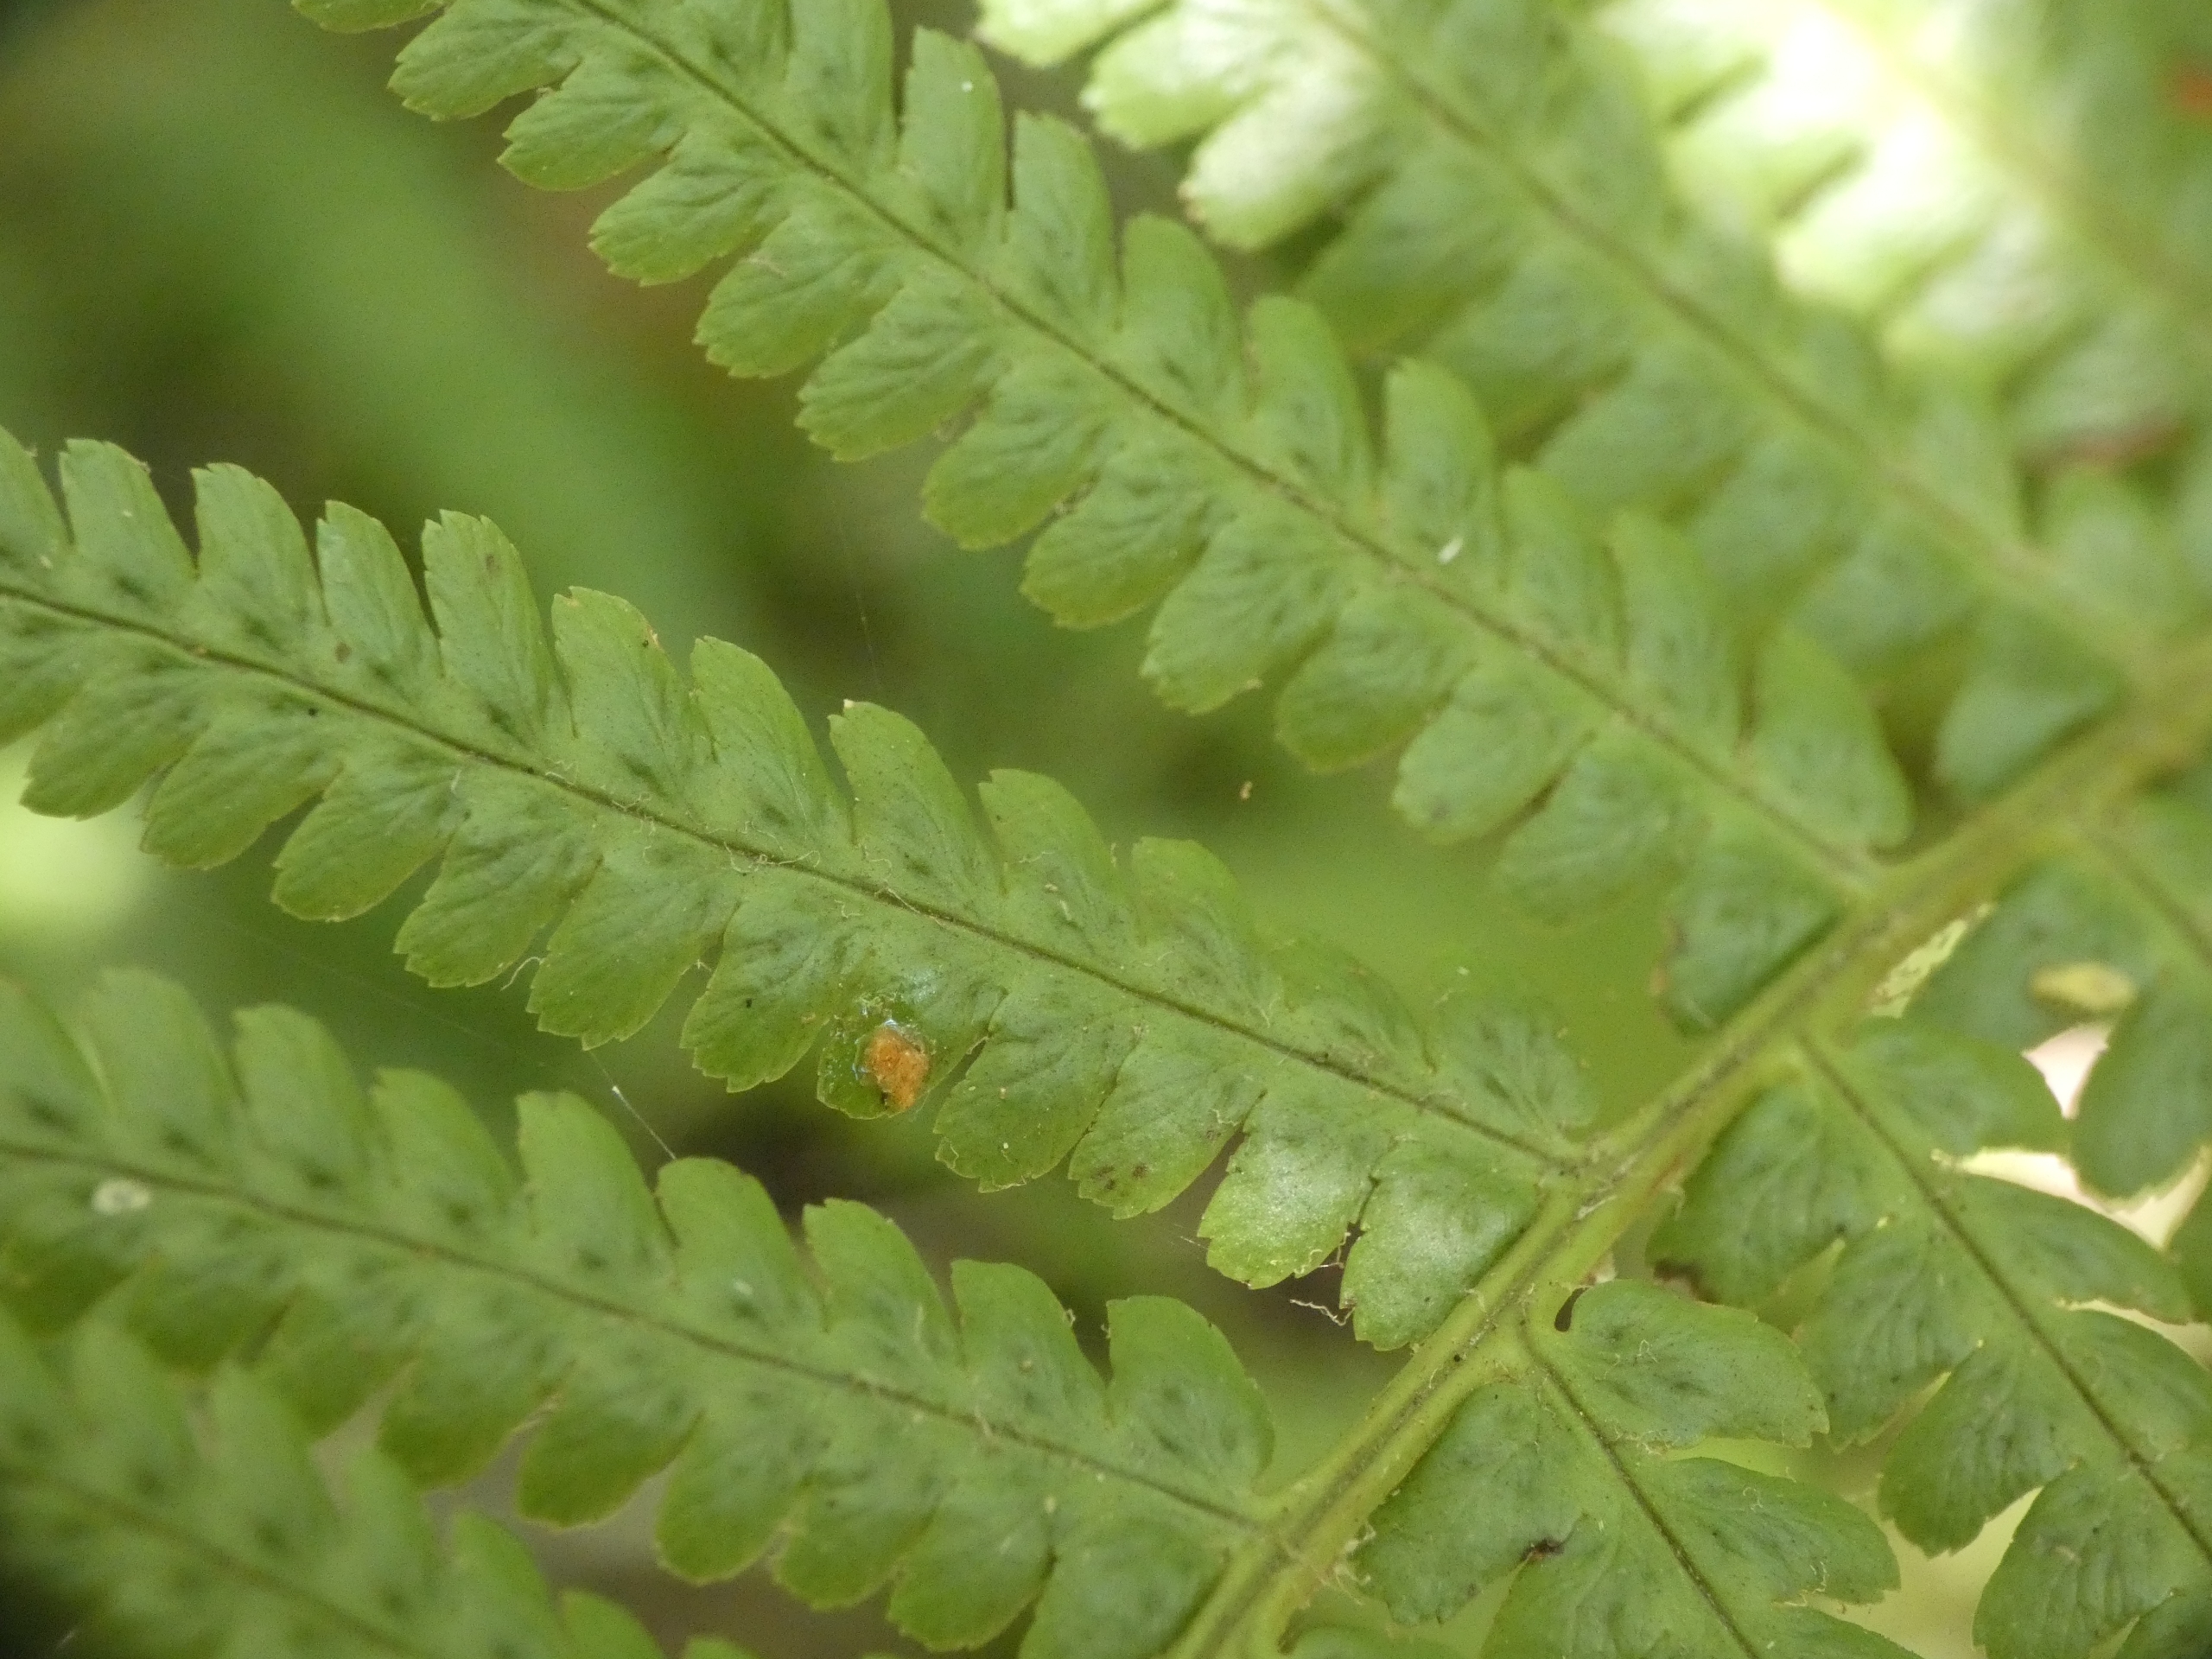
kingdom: Plantae
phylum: Tracheophyta
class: Polypodiopsida
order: Polypodiales
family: Dryopteridaceae
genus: Dryopteris
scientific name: Dryopteris filix-mas
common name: Almindelig mangeløv
